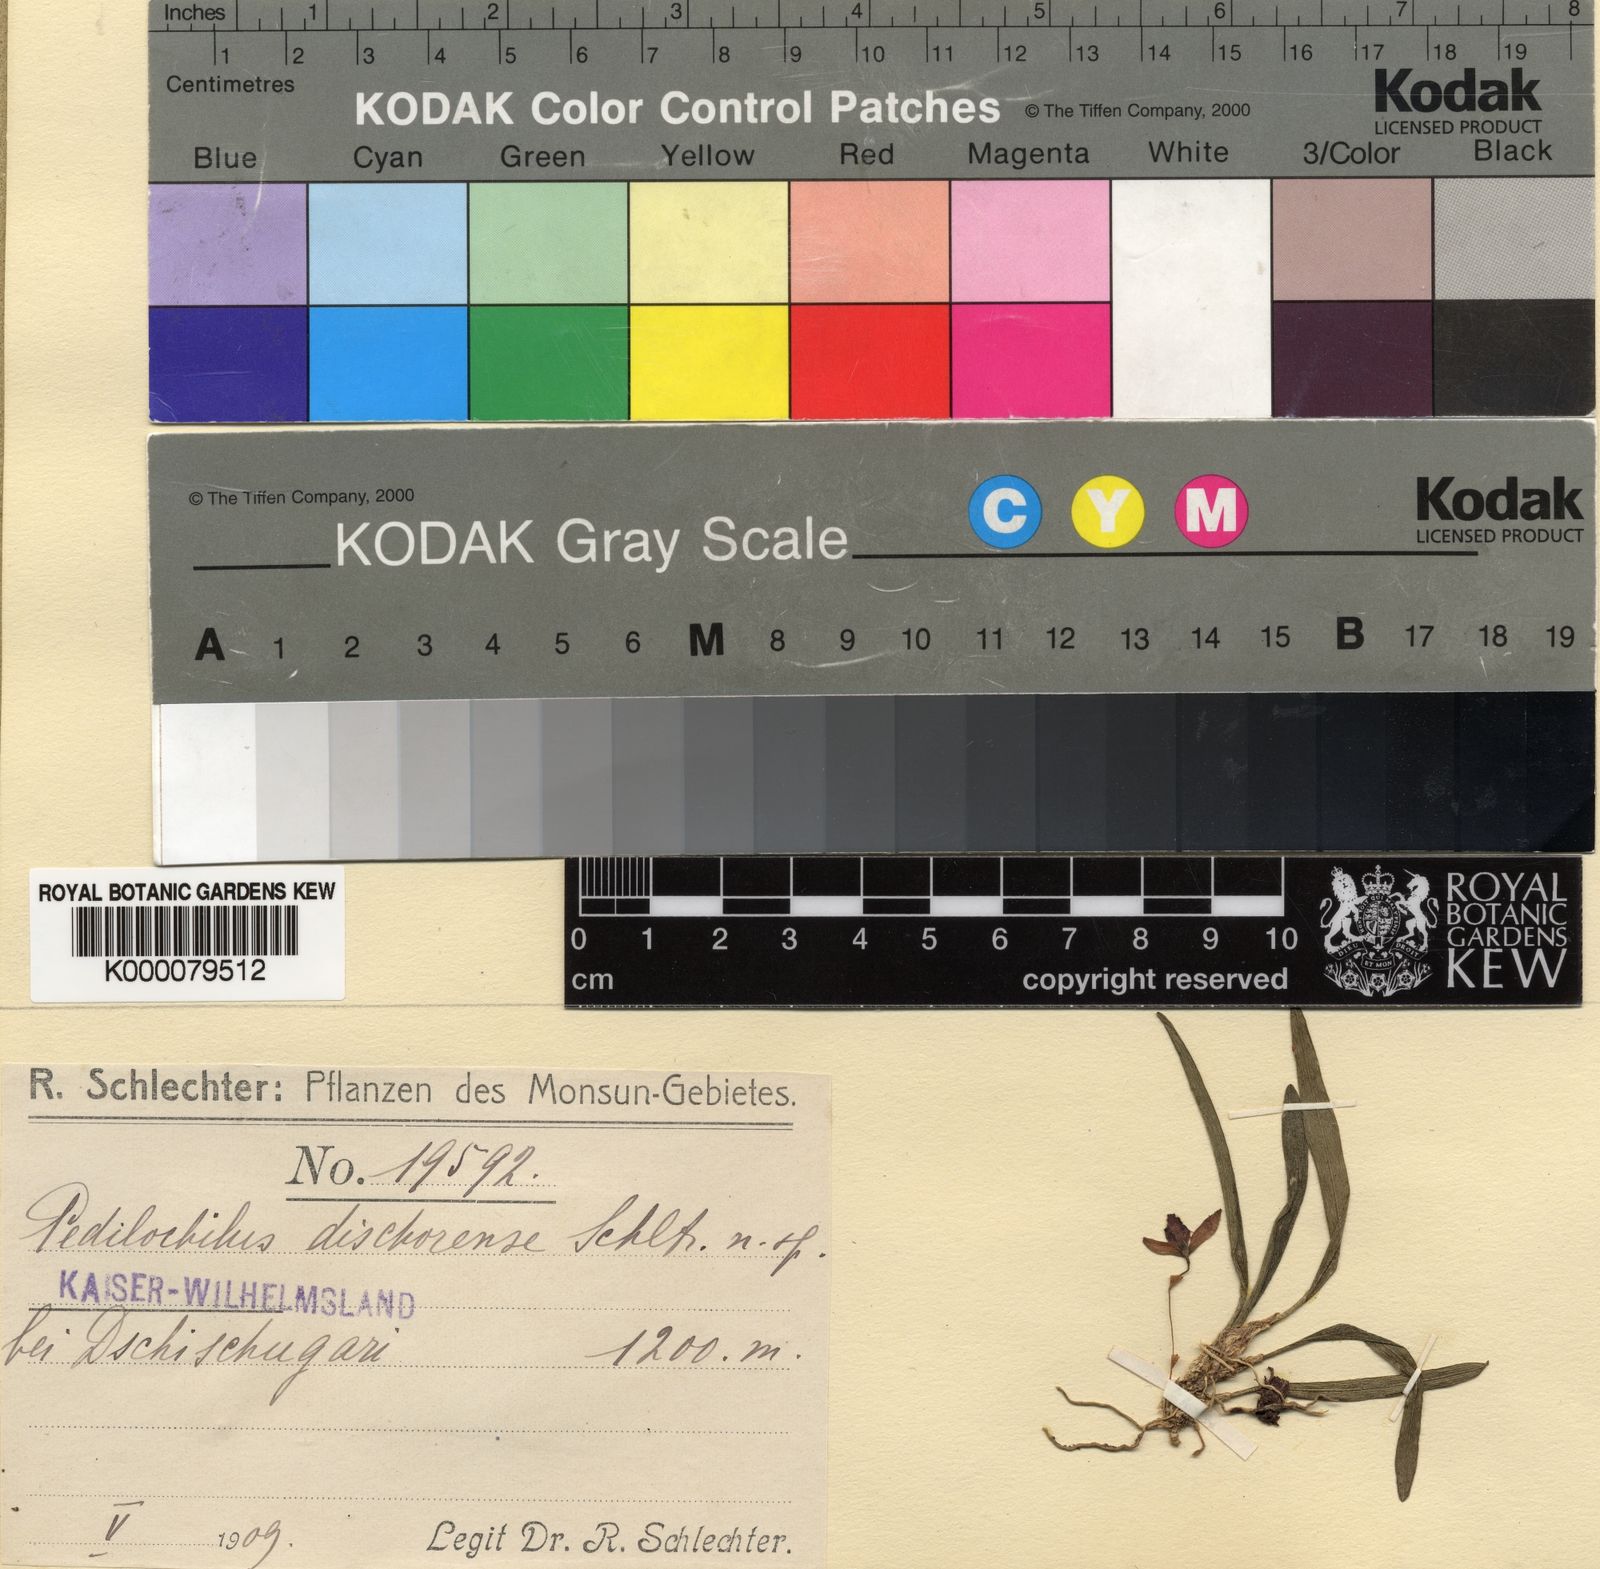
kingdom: Plantae
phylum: Tracheophyta
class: Liliopsida
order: Asparagales
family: Orchidaceae
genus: Bulbophyllum
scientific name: Bulbophyllum
